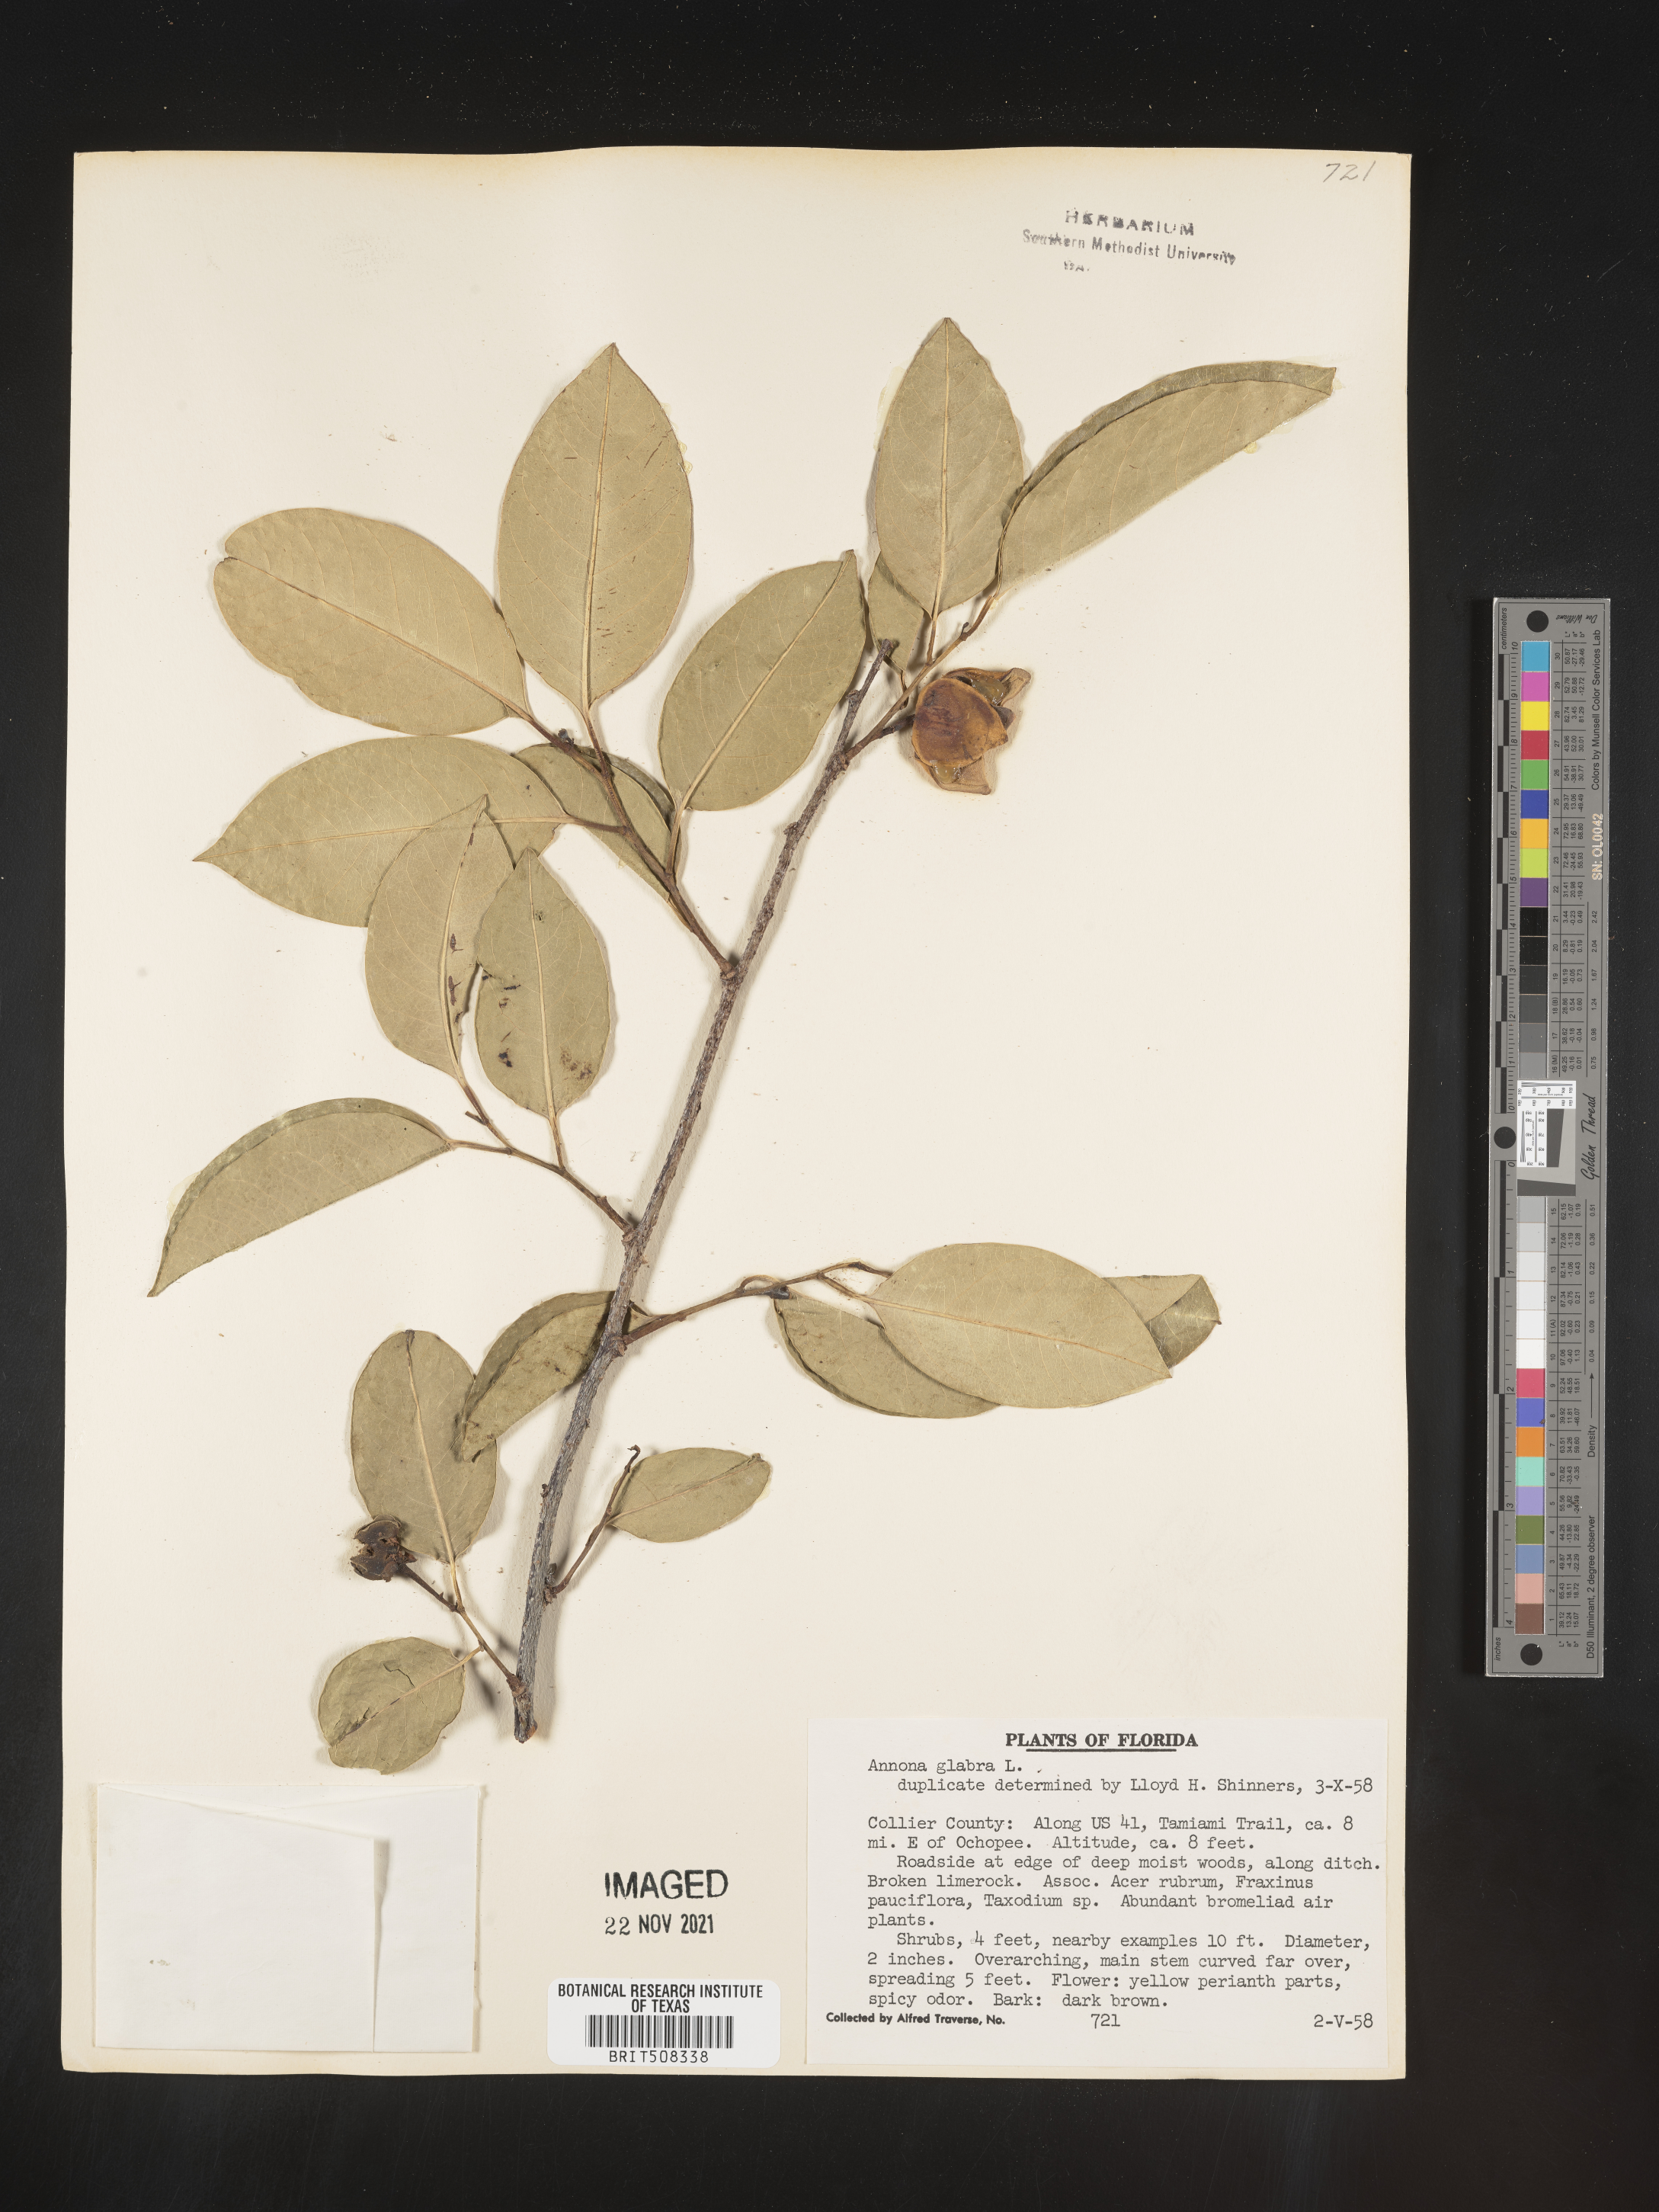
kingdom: Plantae
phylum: Tracheophyta
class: Magnoliopsida
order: Magnoliales
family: Annonaceae
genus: Annona
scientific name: Annona
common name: Anona
